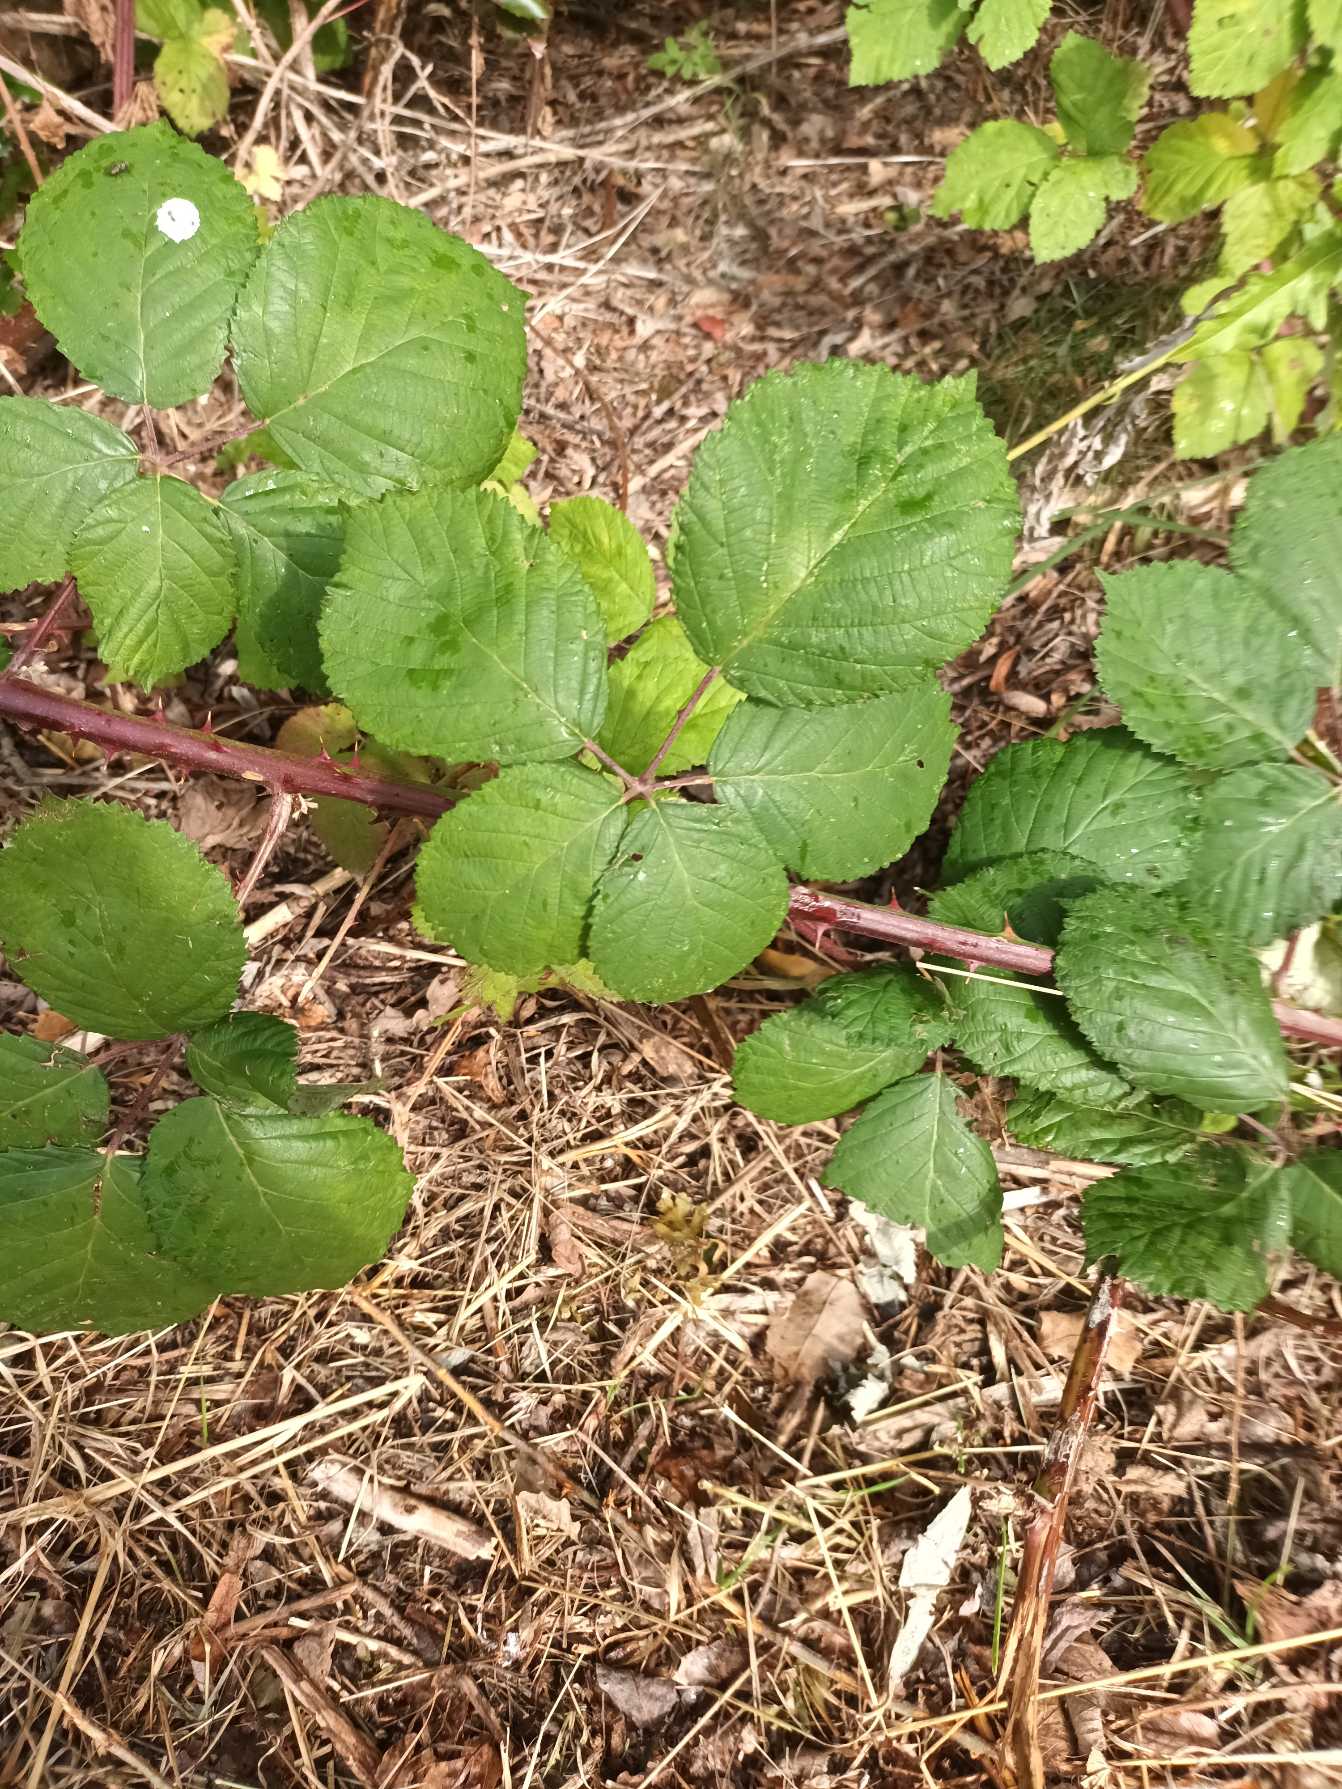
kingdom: Plantae
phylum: Tracheophyta
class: Magnoliopsida
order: Rosales
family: Rosaceae
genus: Rubus
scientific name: Rubus armeniacus
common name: Armensk brombær
